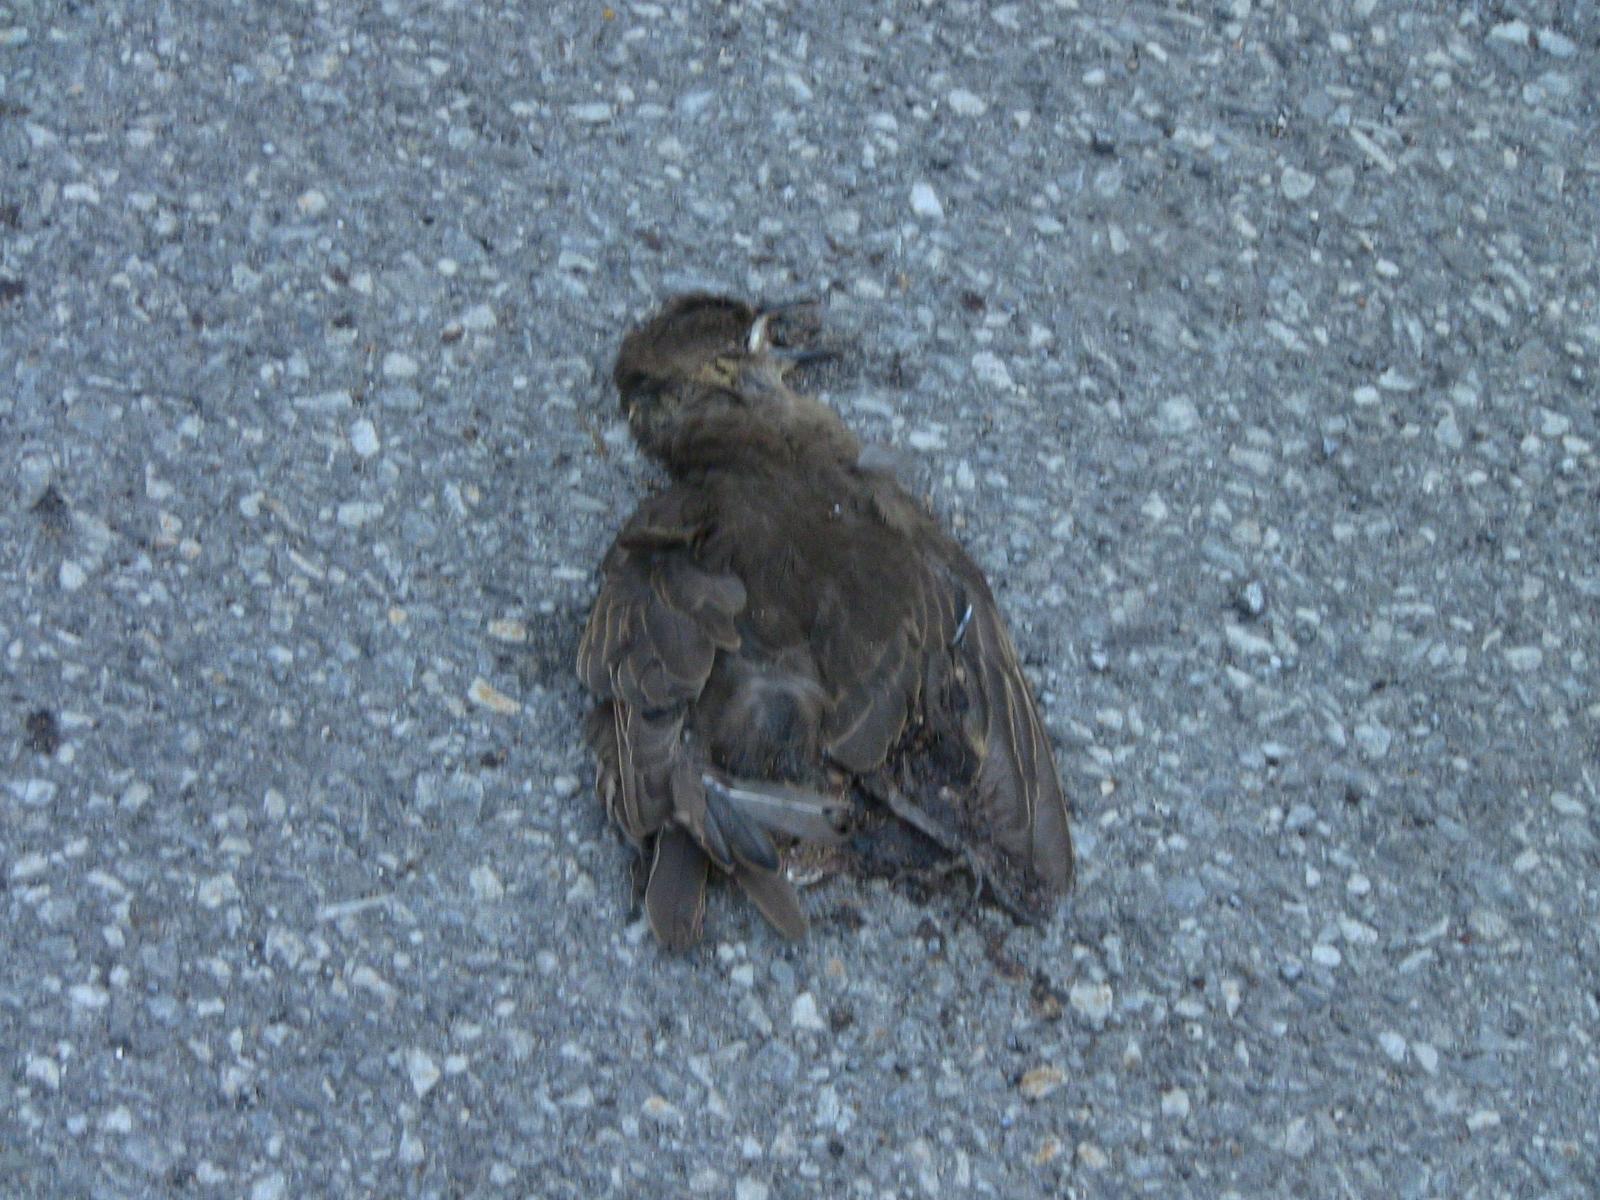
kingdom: Animalia
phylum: Chordata
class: Aves
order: Passeriformes
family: Sturnidae
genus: Sturnus
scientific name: Sturnus vulgaris
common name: Common starling
